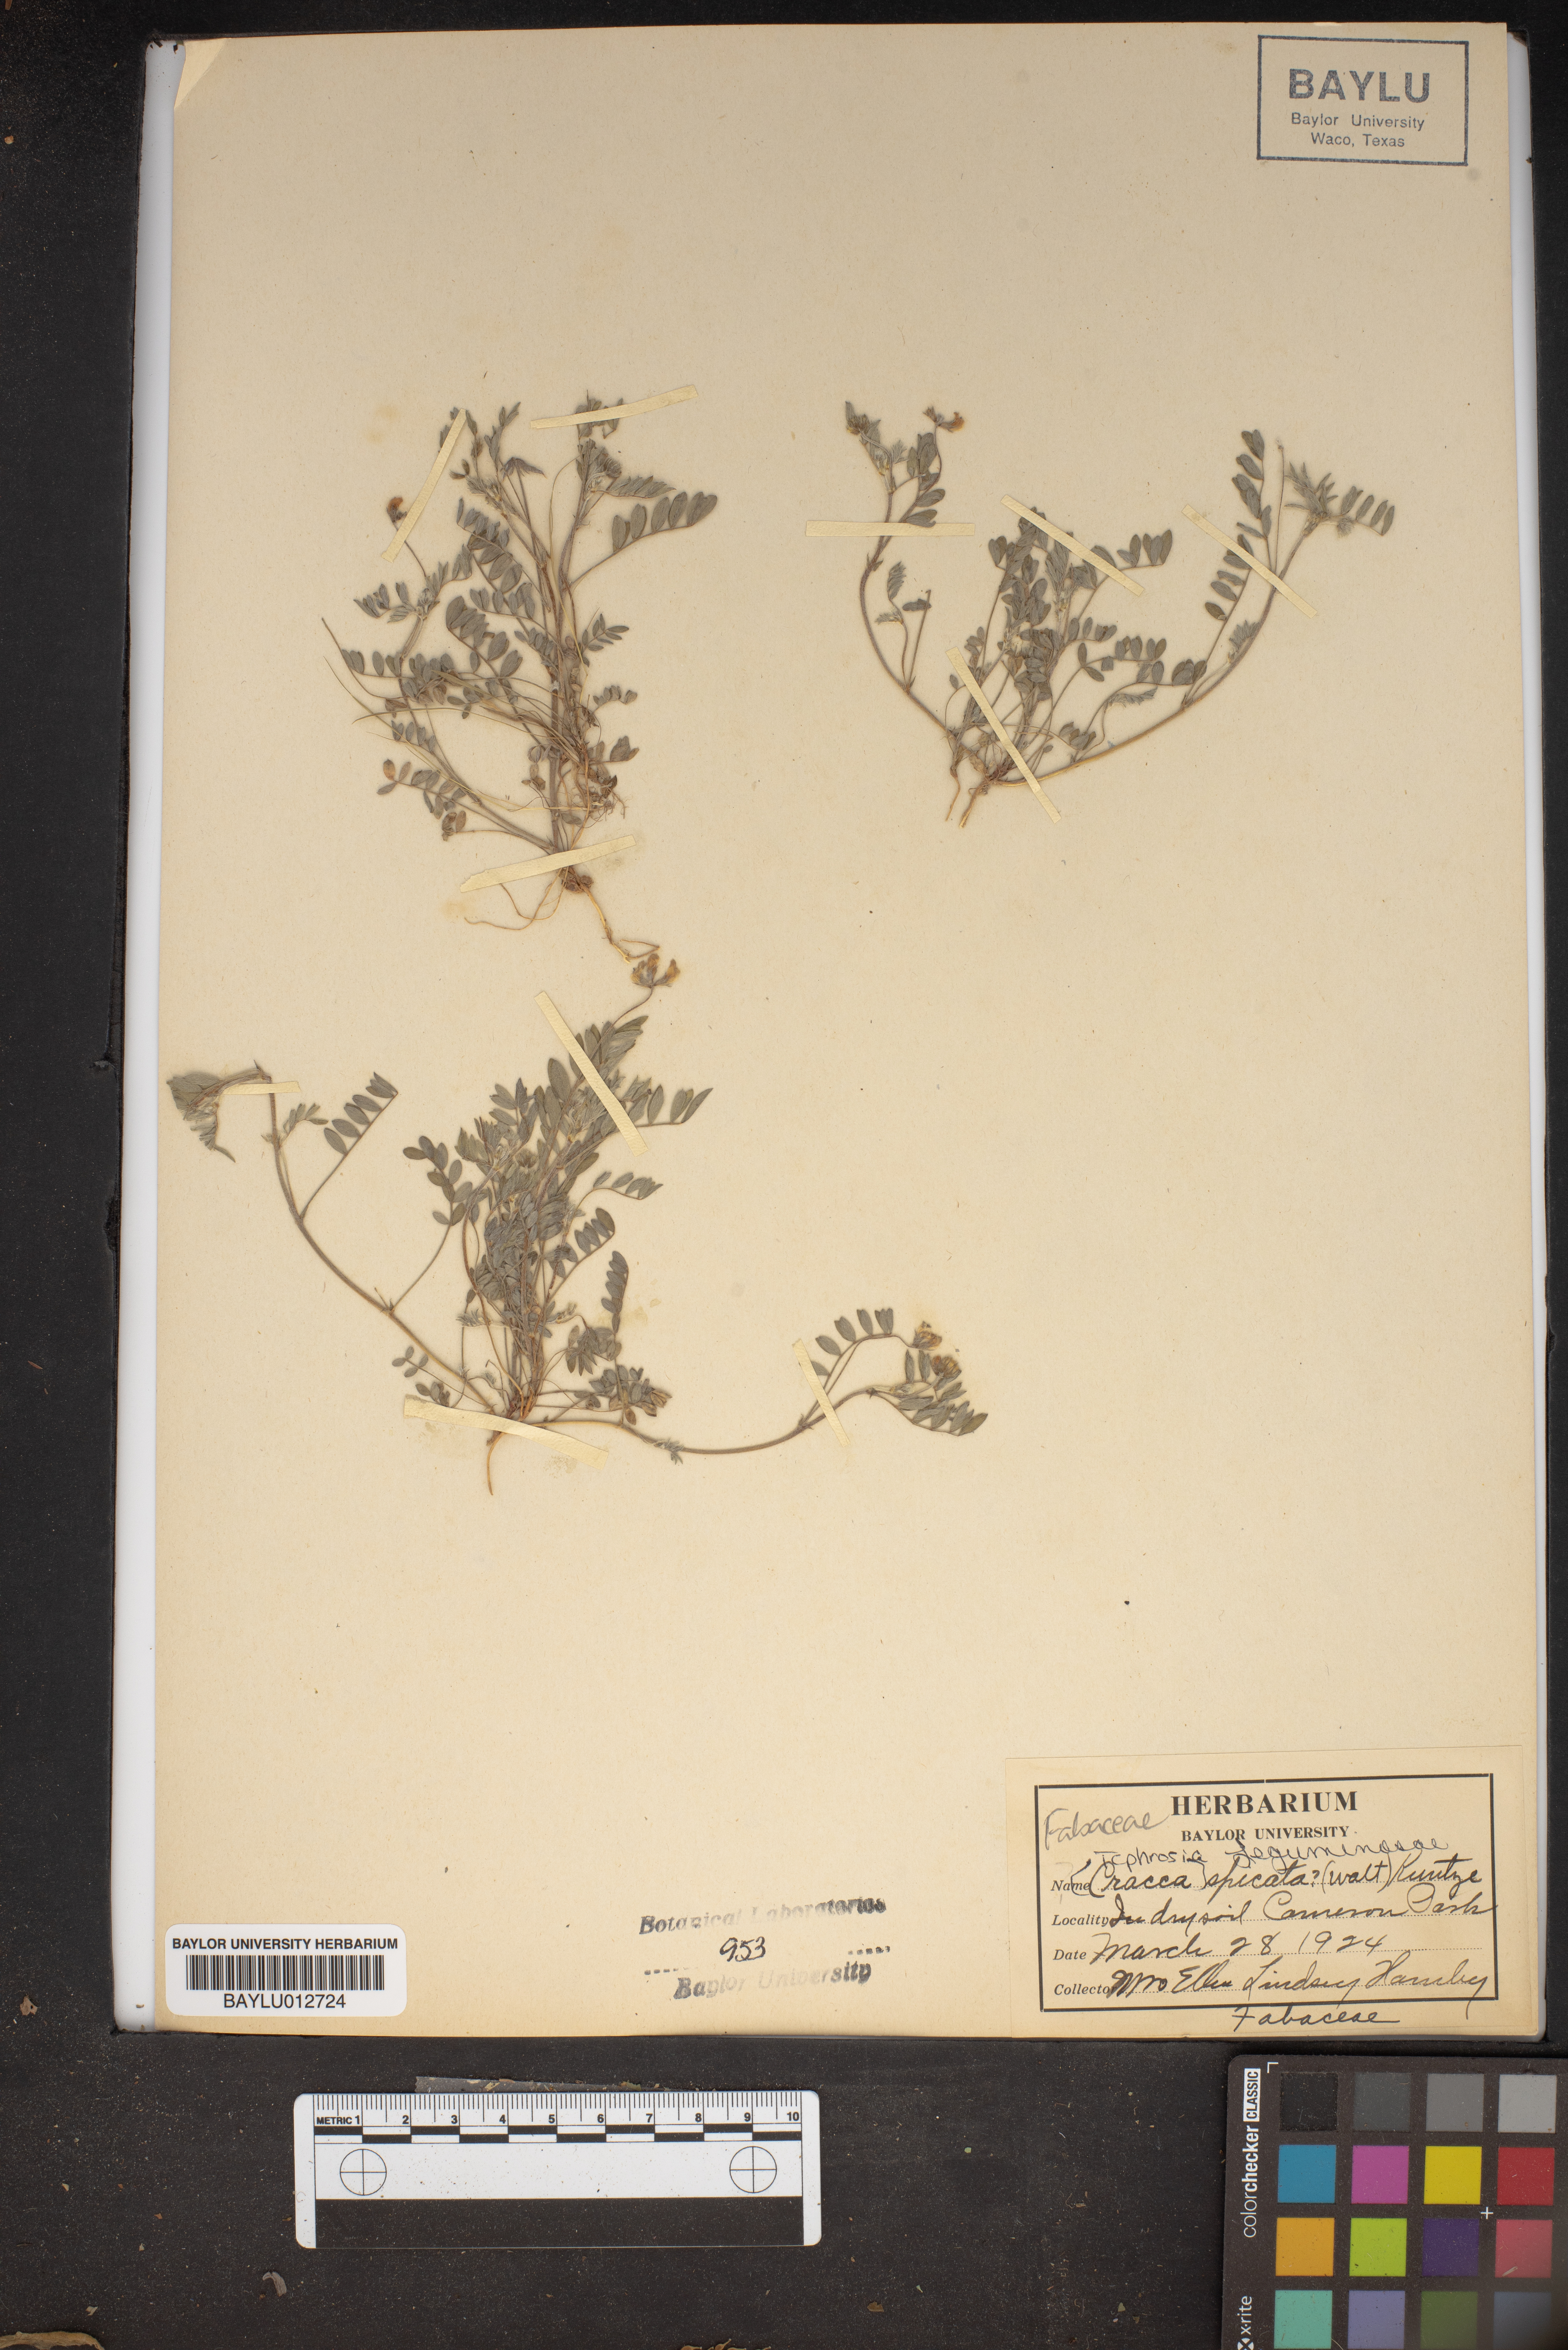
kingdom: Plantae
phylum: Tracheophyta
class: Magnoliopsida
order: Fabales
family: Fabaceae
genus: Tephrosia
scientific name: Tephrosia spicata
